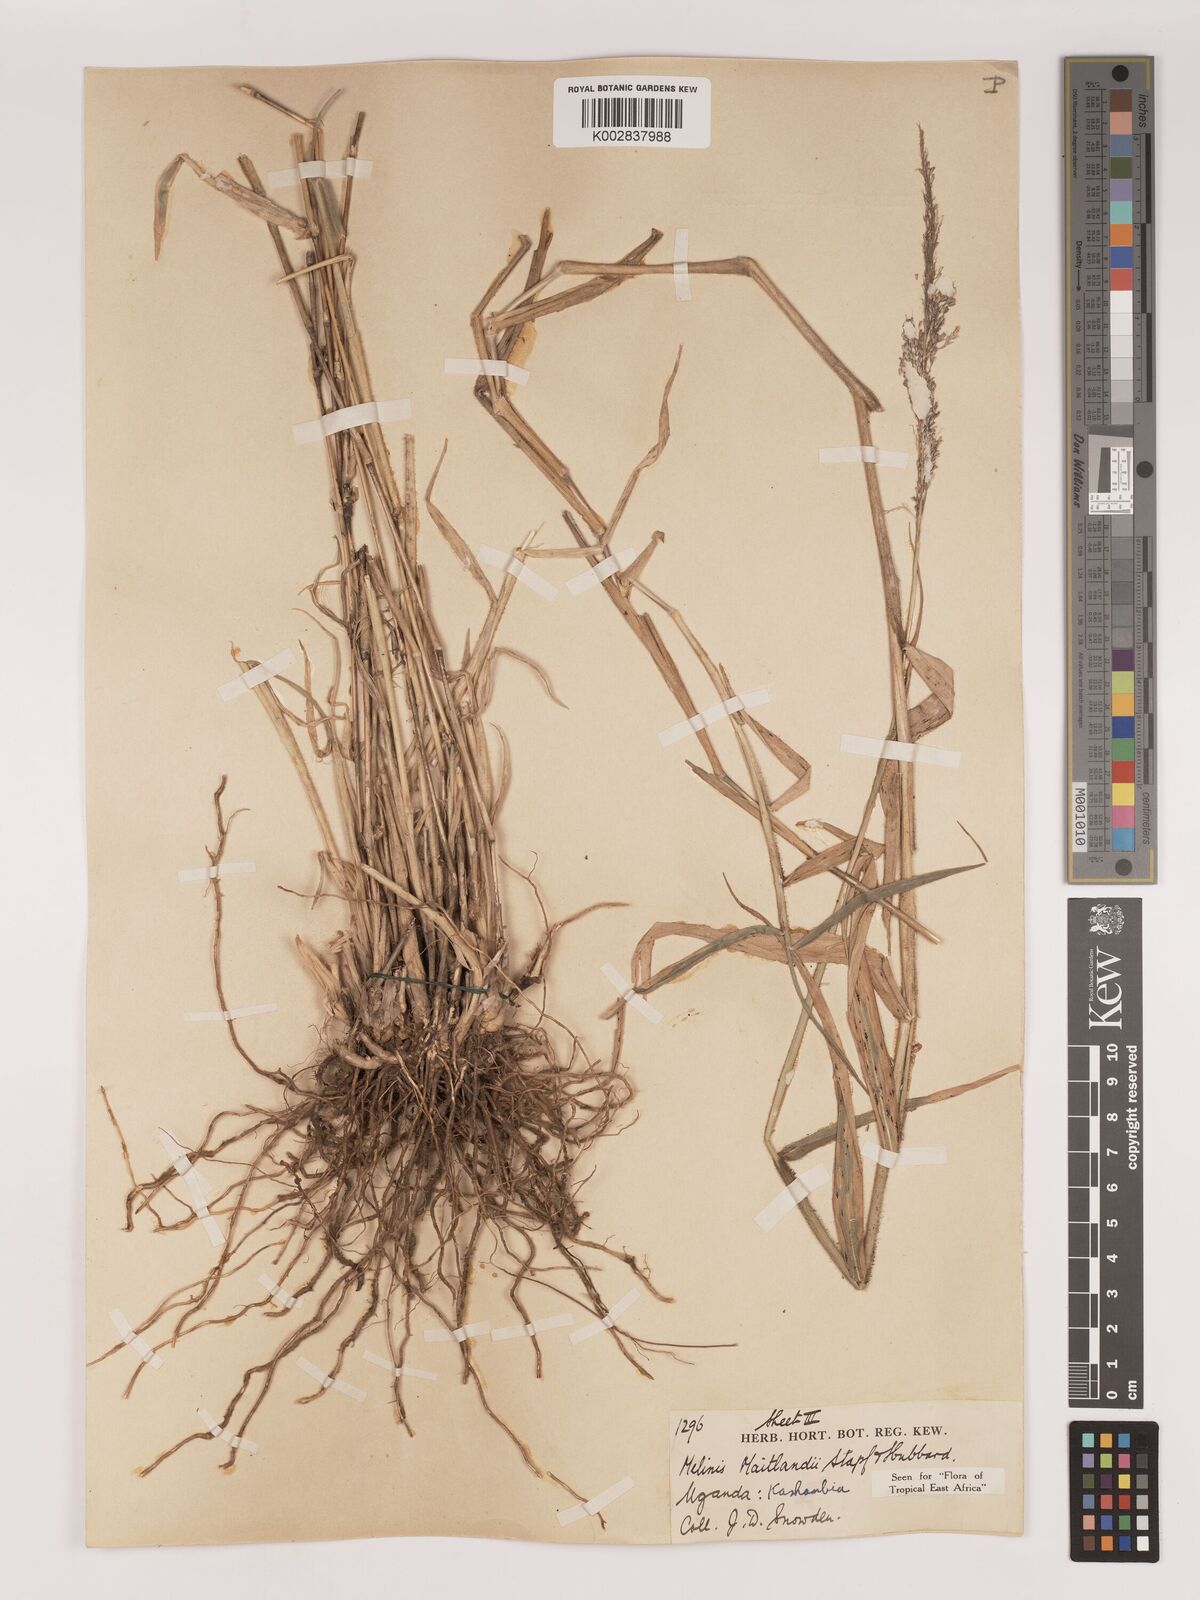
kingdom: Plantae
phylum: Tracheophyta
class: Liliopsida
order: Poales
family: Poaceae
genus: Melinis
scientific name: Melinis minutiflora
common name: Molassesgrass
